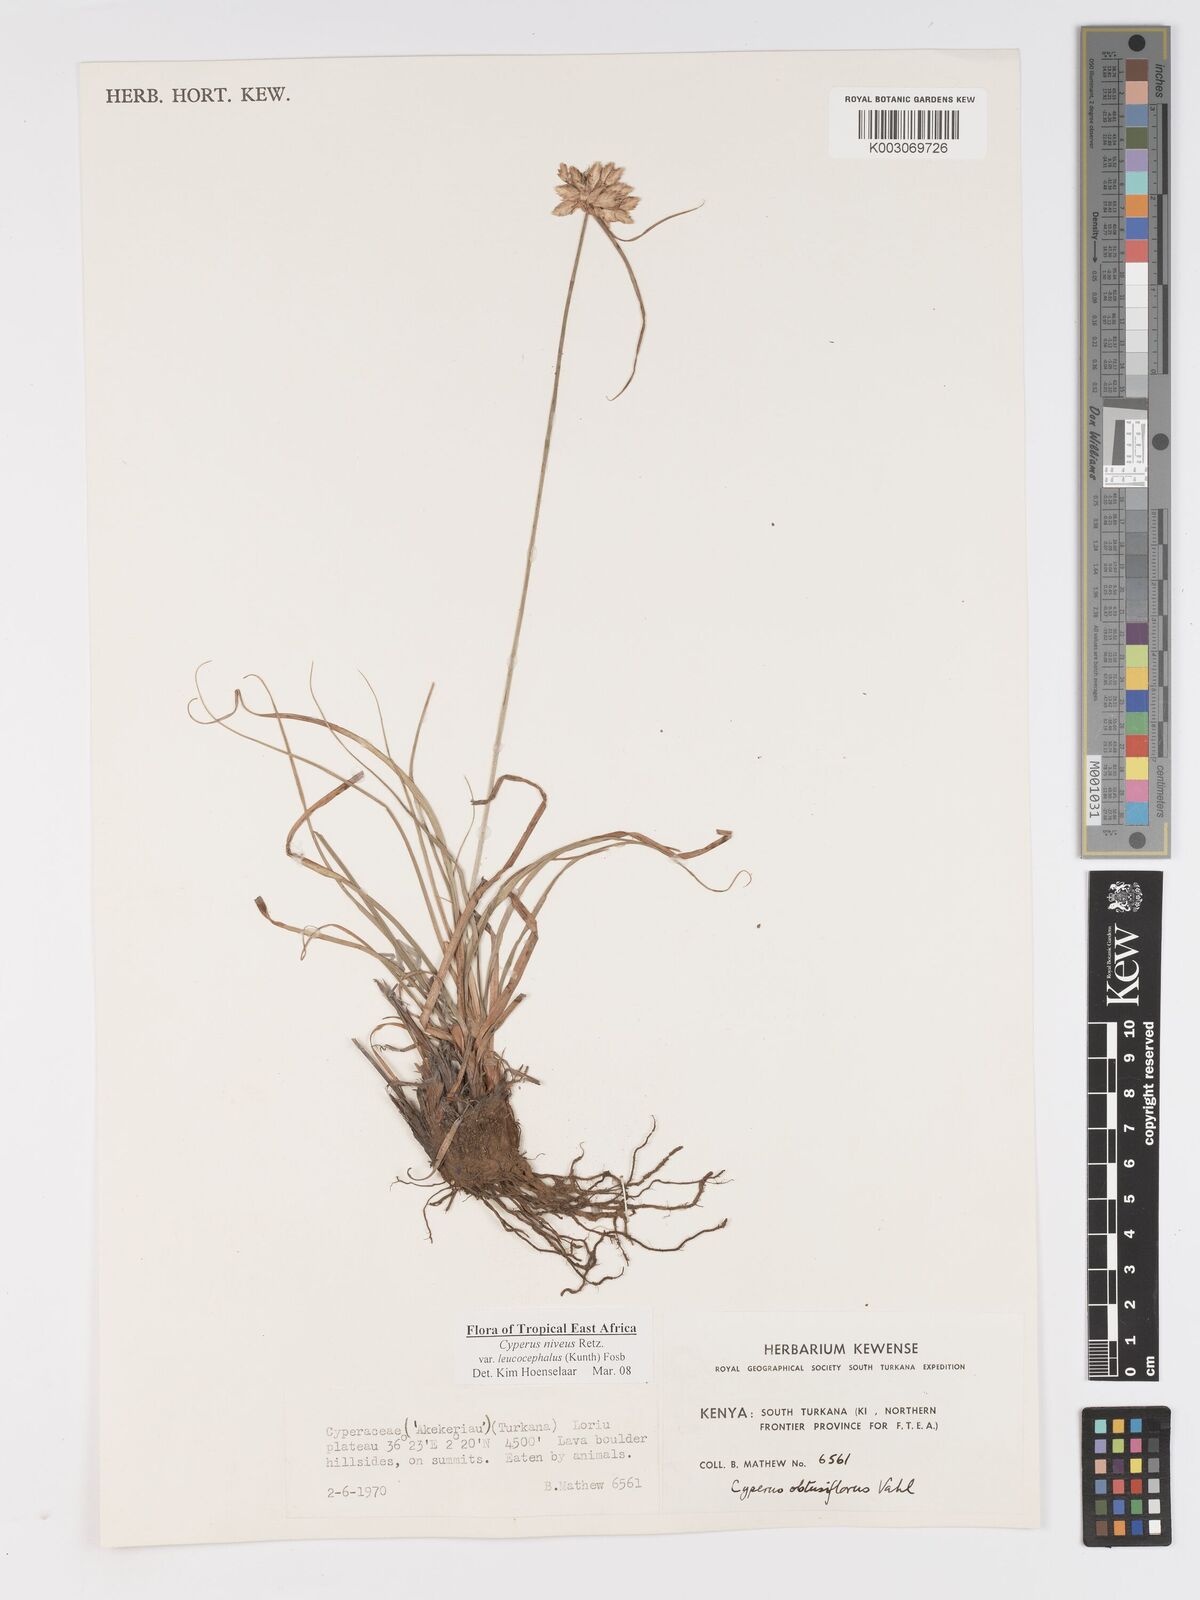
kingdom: Plantae
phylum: Tracheophyta
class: Liliopsida
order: Poales
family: Cyperaceae
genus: Cyperus
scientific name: Cyperus niveus
